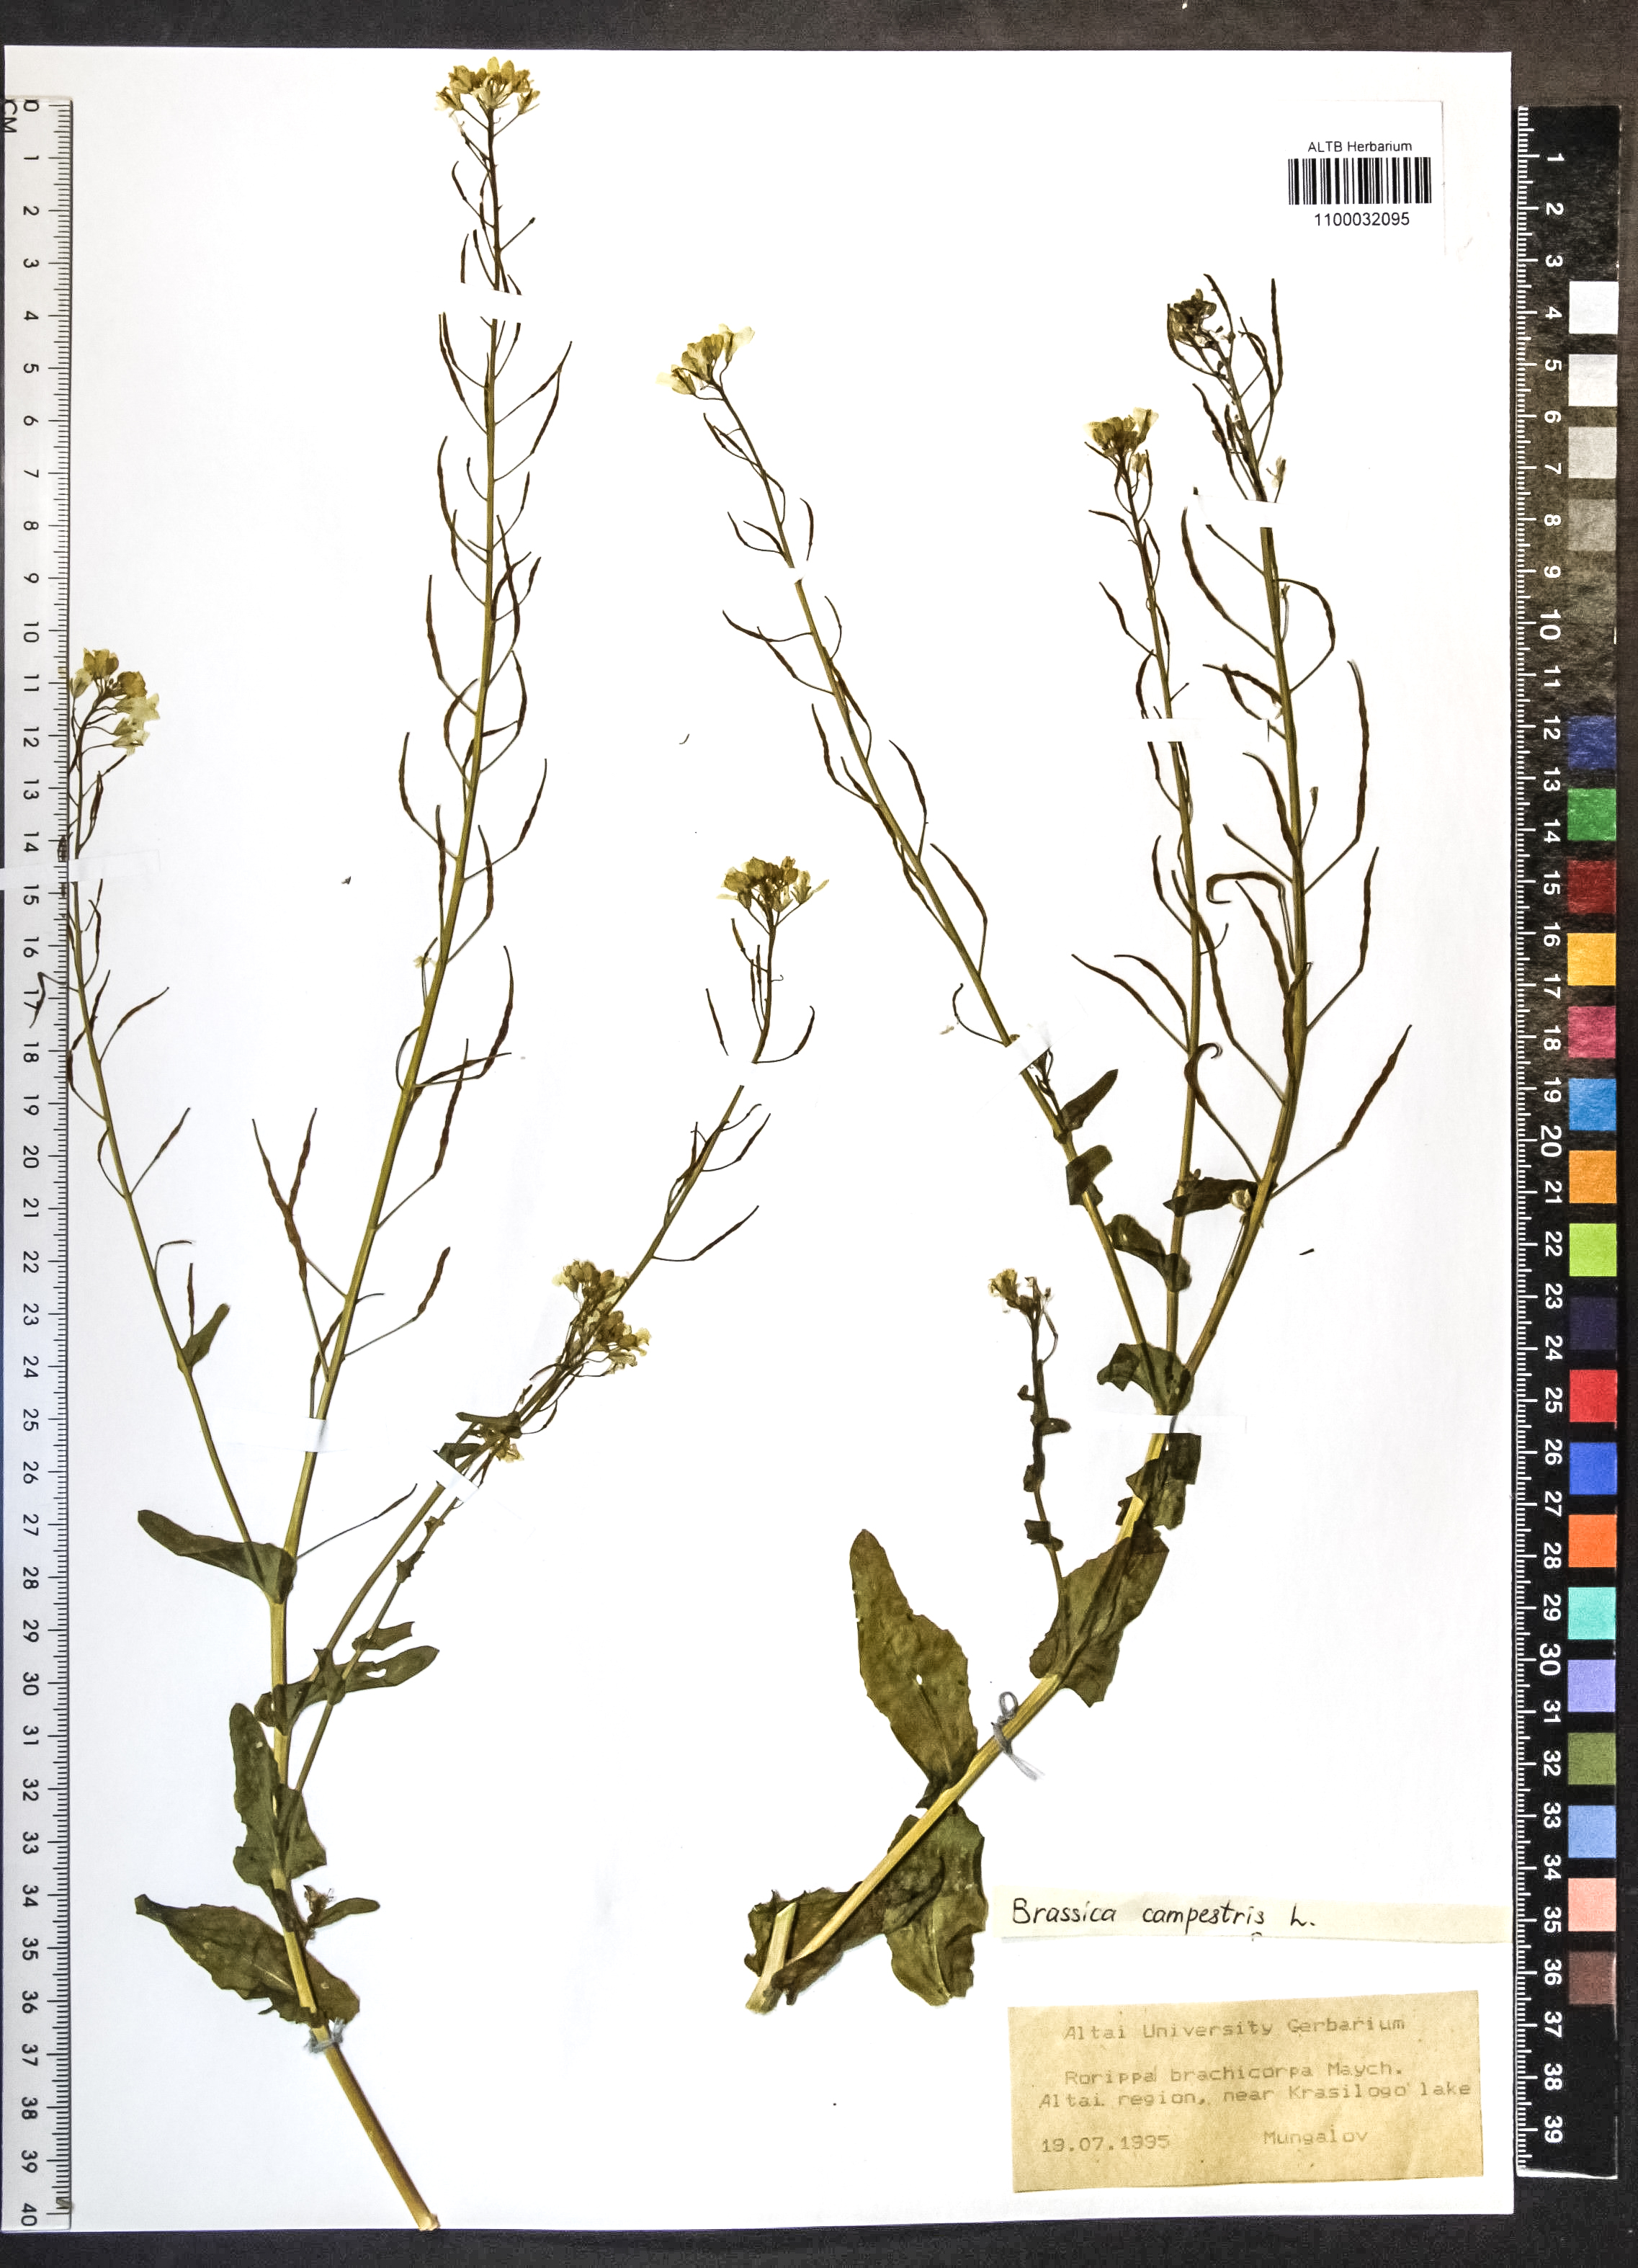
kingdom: Plantae
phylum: Tracheophyta
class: Magnoliopsida
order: Brassicales
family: Brassicaceae
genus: Brassica
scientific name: Brassica rapa
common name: Field mustard
